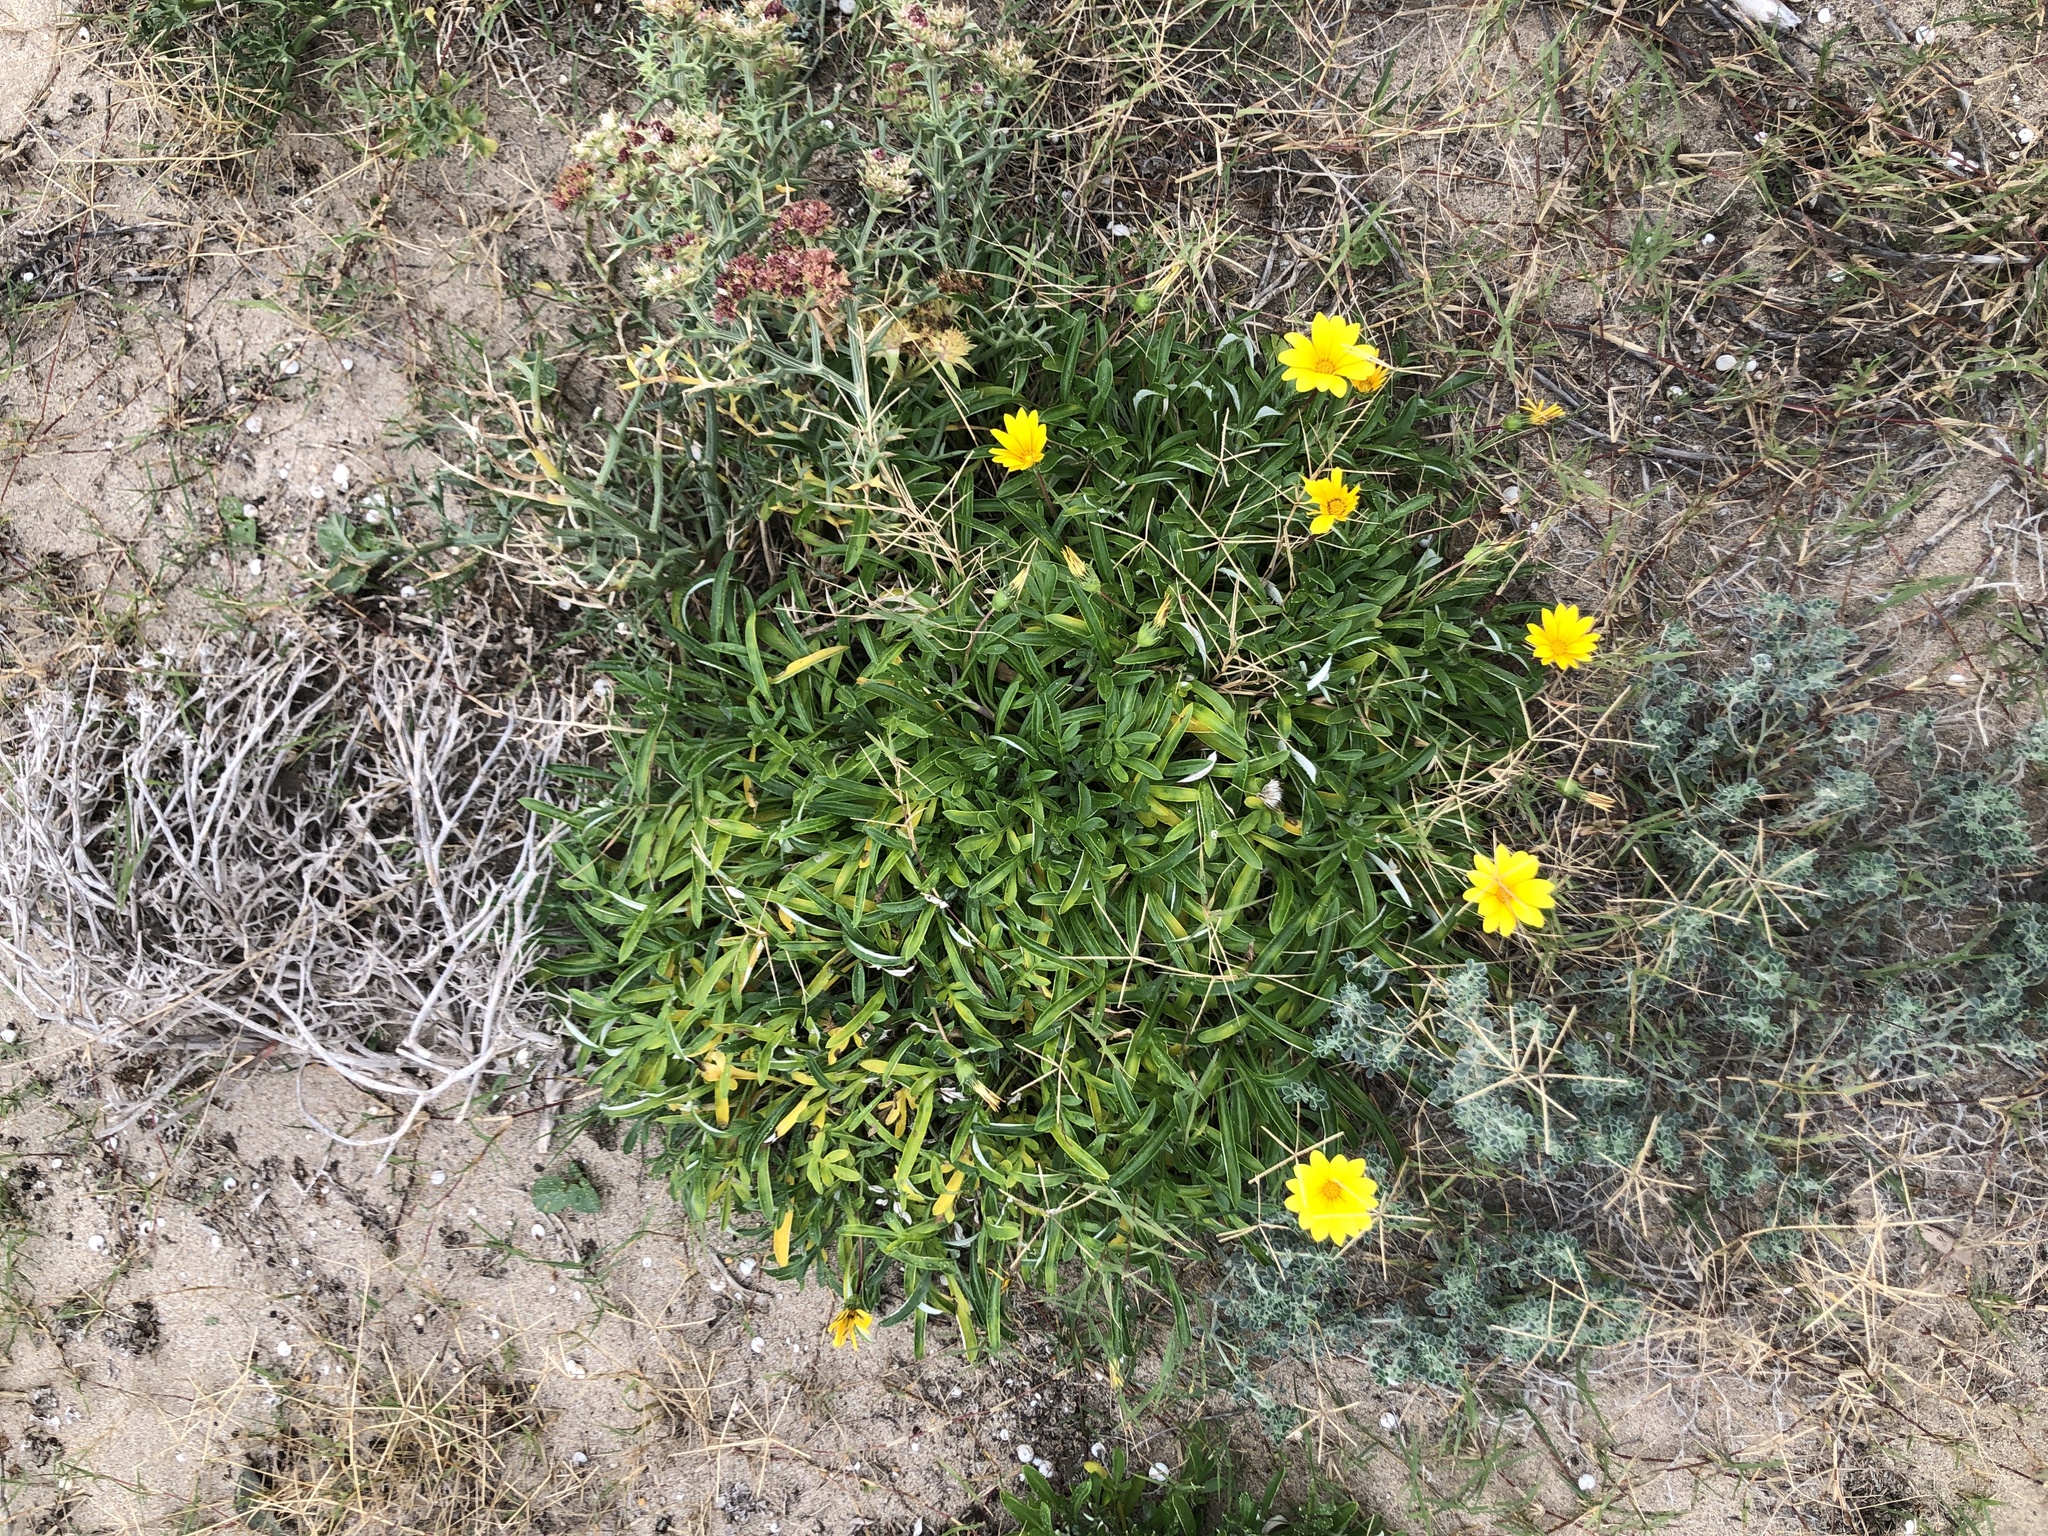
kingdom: Plantae
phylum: Tracheophyta
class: Magnoliopsida
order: Asterales
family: Asteraceae
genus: Gazania
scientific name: Gazania rigens
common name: Treasureflower
